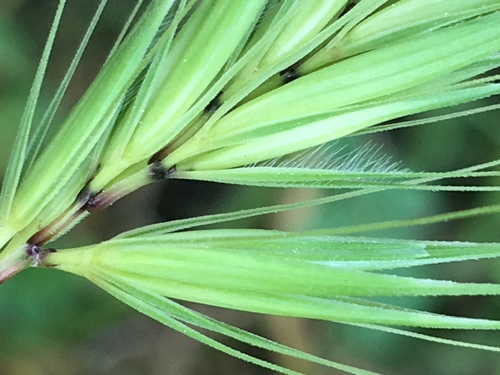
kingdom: Plantae
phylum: Tracheophyta
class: Liliopsida
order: Poales
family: Poaceae
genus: Hordeum
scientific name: Hordeum murinum
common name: Wall barley
